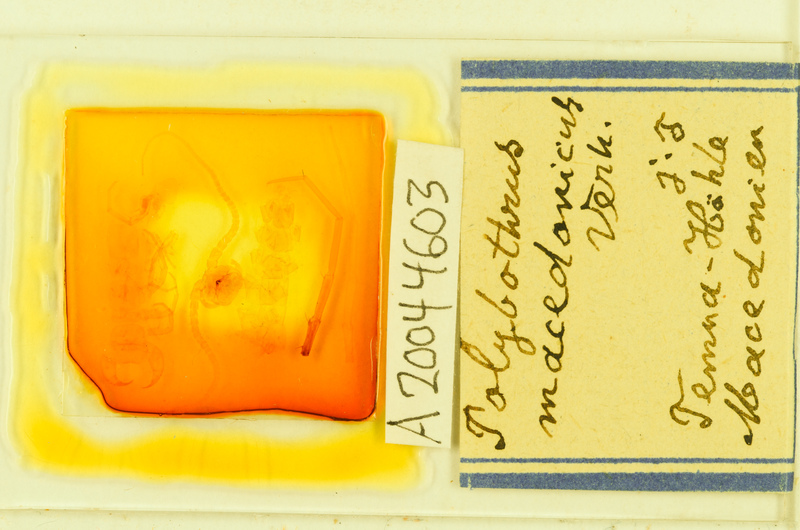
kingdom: Animalia
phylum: Arthropoda
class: Chilopoda
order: Lithobiomorpha
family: Lithobiidae
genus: Polybothrus
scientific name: Polybothrus macedonicus
